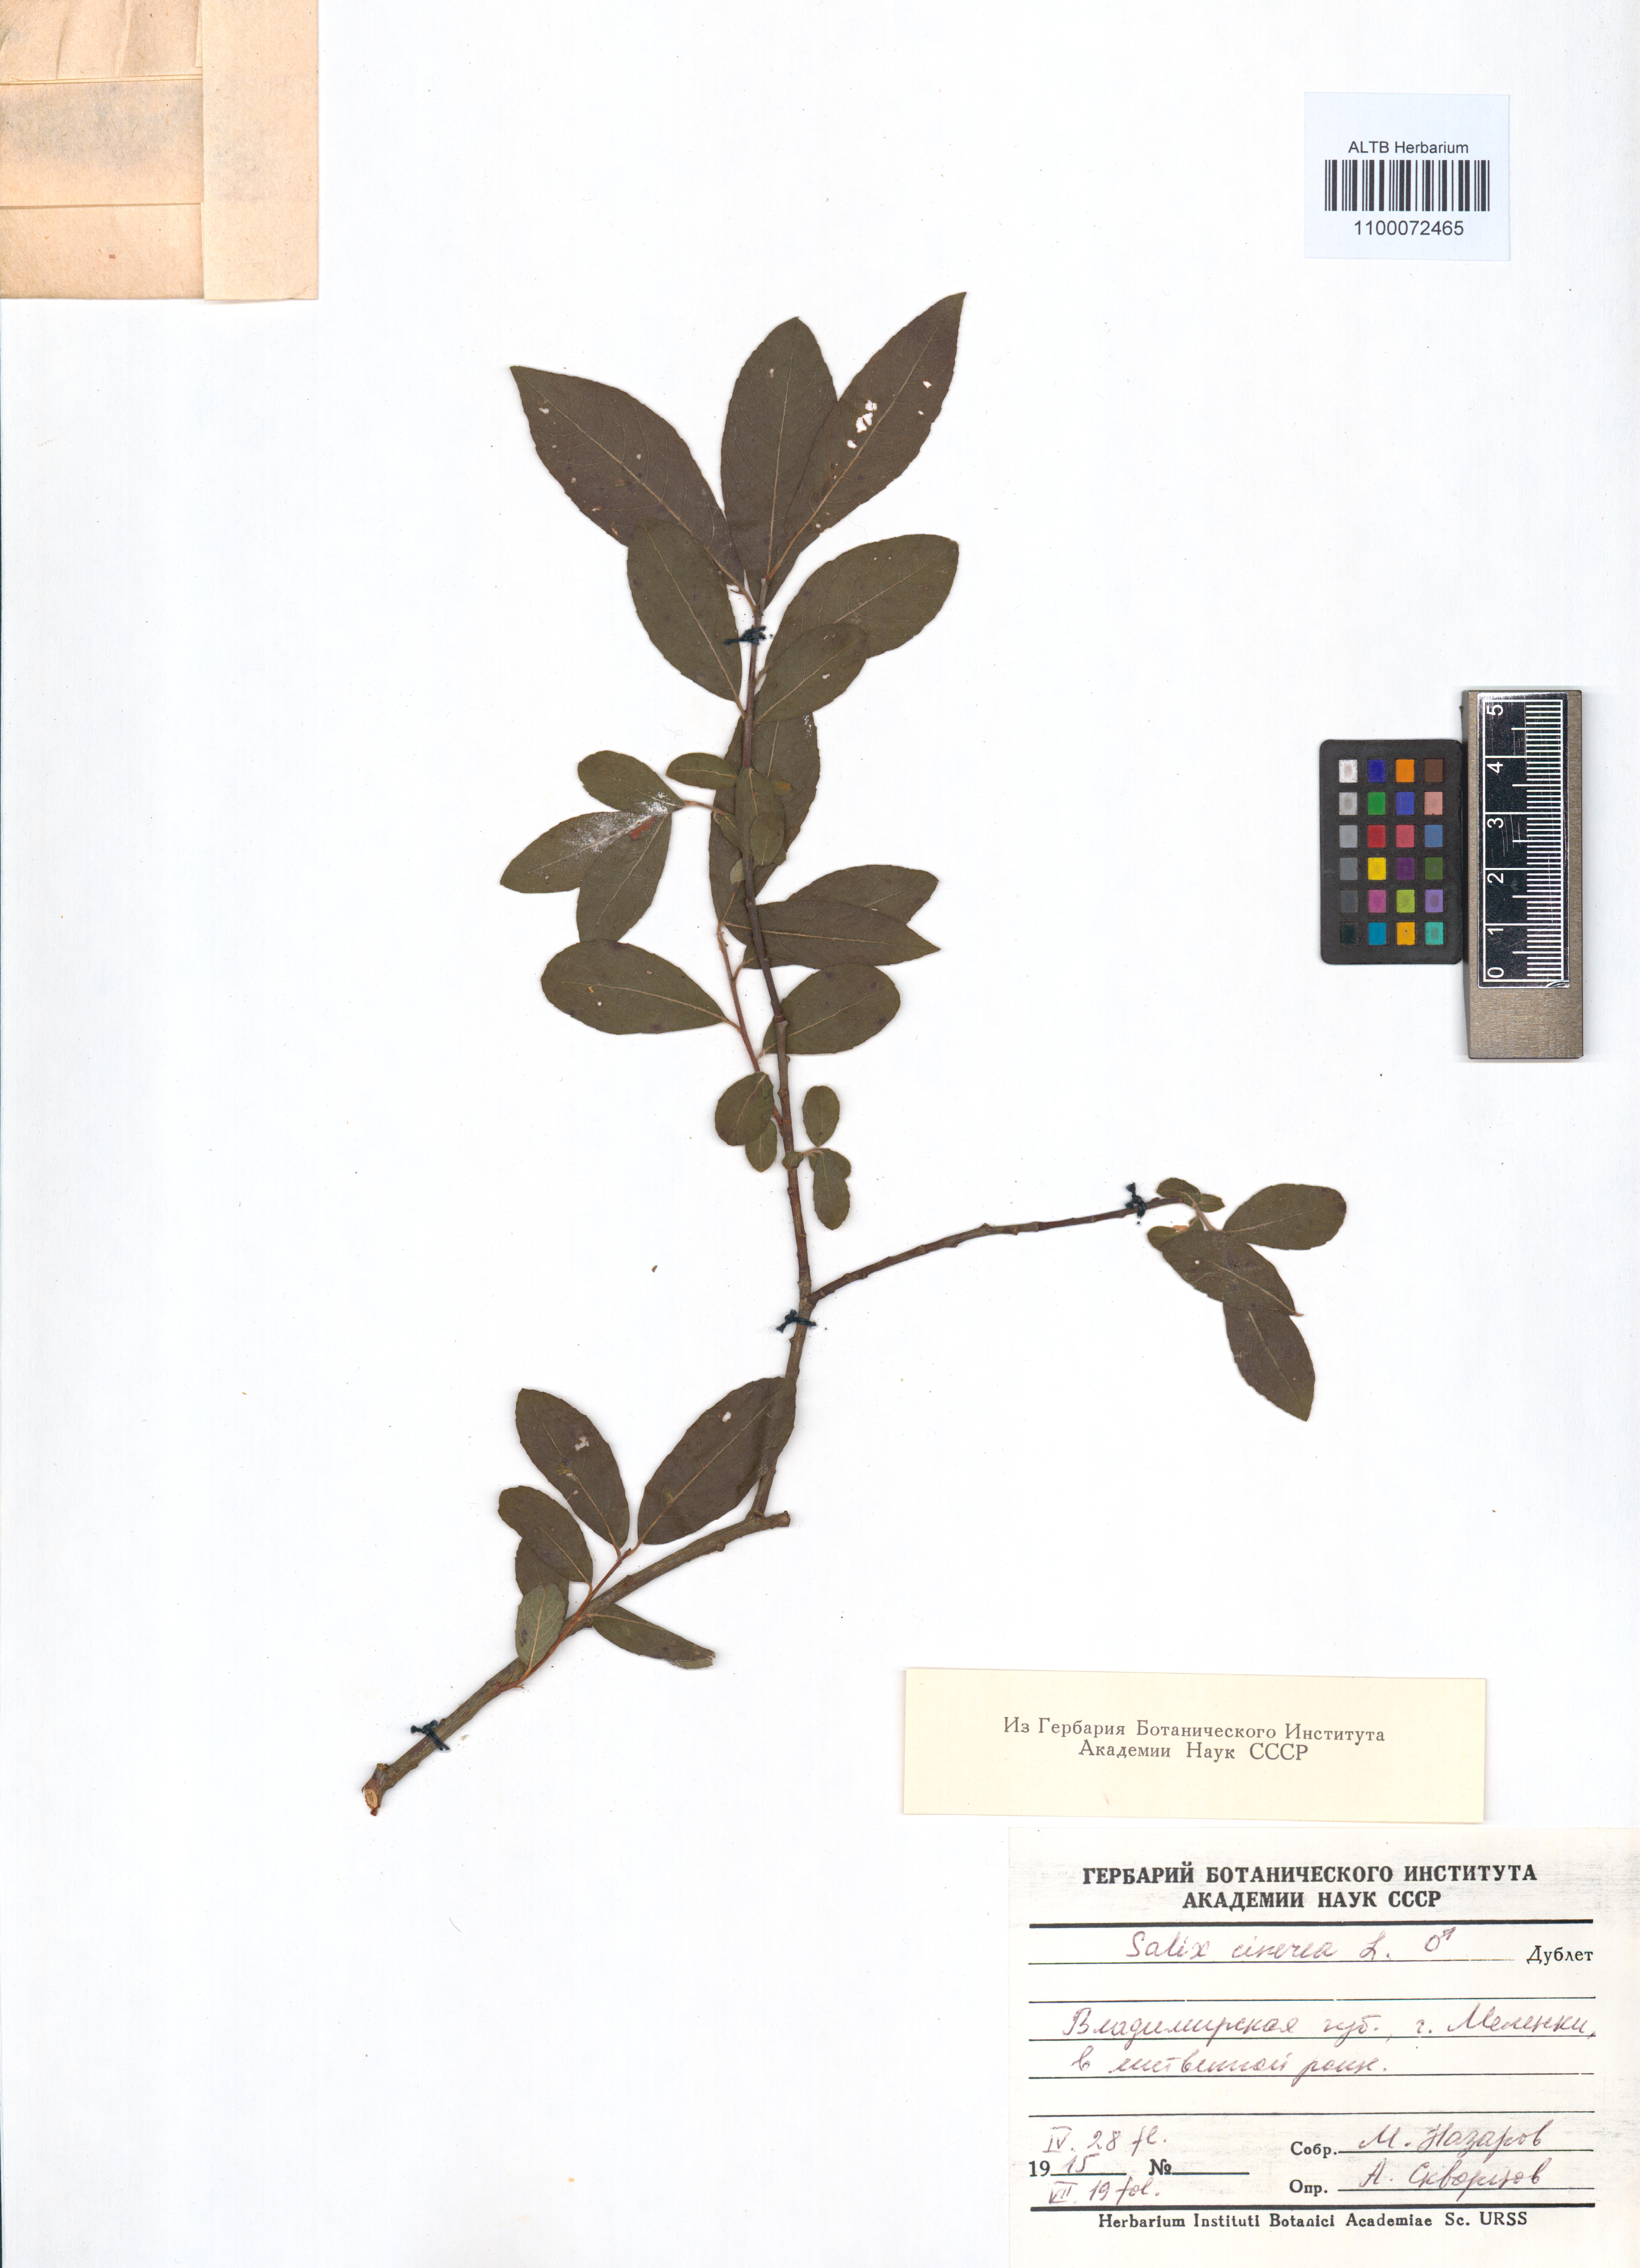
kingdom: Plantae
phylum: Tracheophyta
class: Magnoliopsida
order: Malpighiales
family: Salicaceae
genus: Salix
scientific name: Salix cinerea
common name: Common sallow
